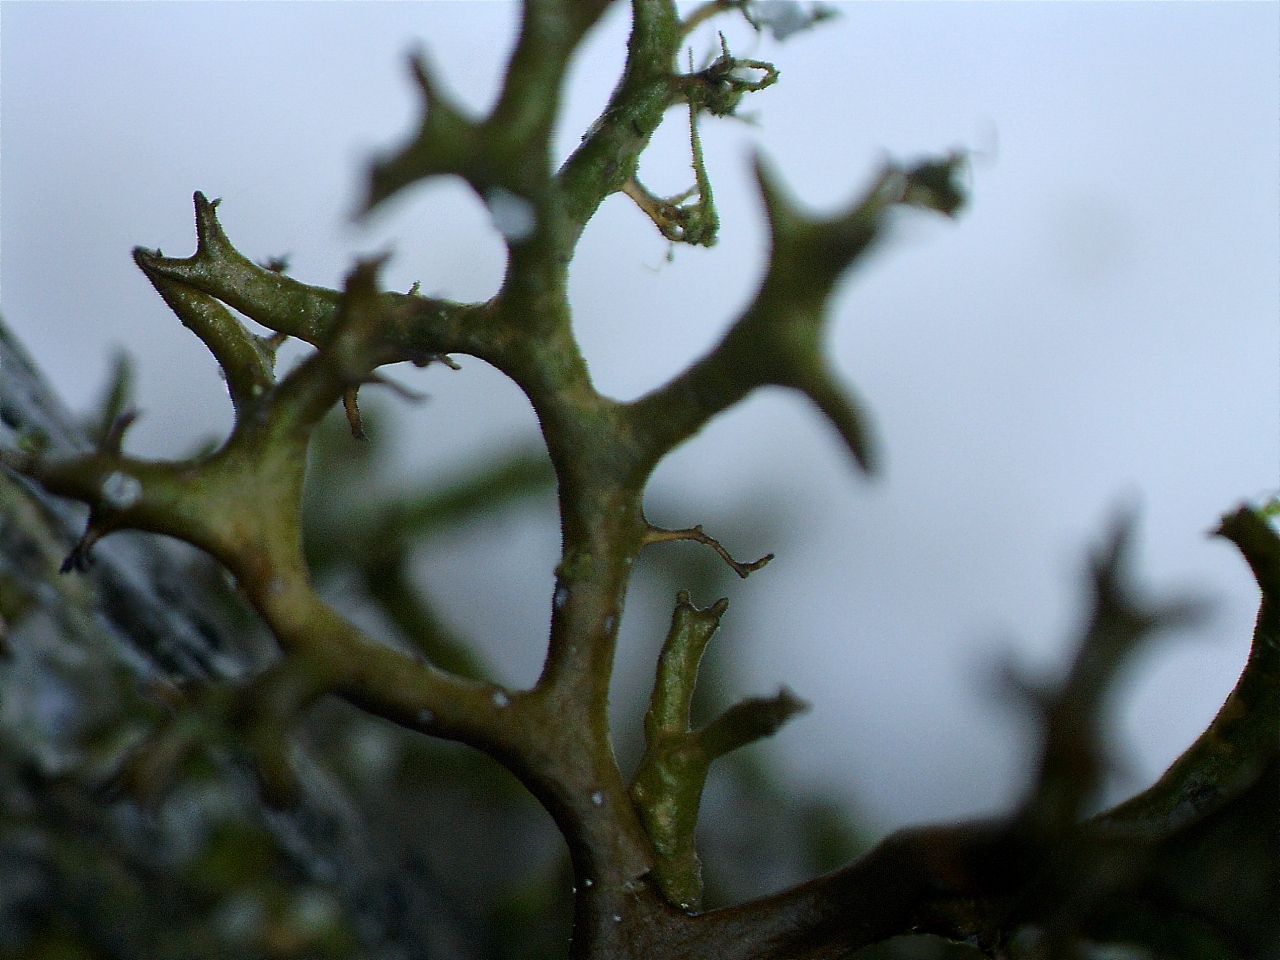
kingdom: Fungi
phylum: Ascomycota
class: Lecanoromycetes
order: Lecanorales
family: Parmeliaceae
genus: Cetraria
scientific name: Cetraria muricata
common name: tue-tjørnelav
